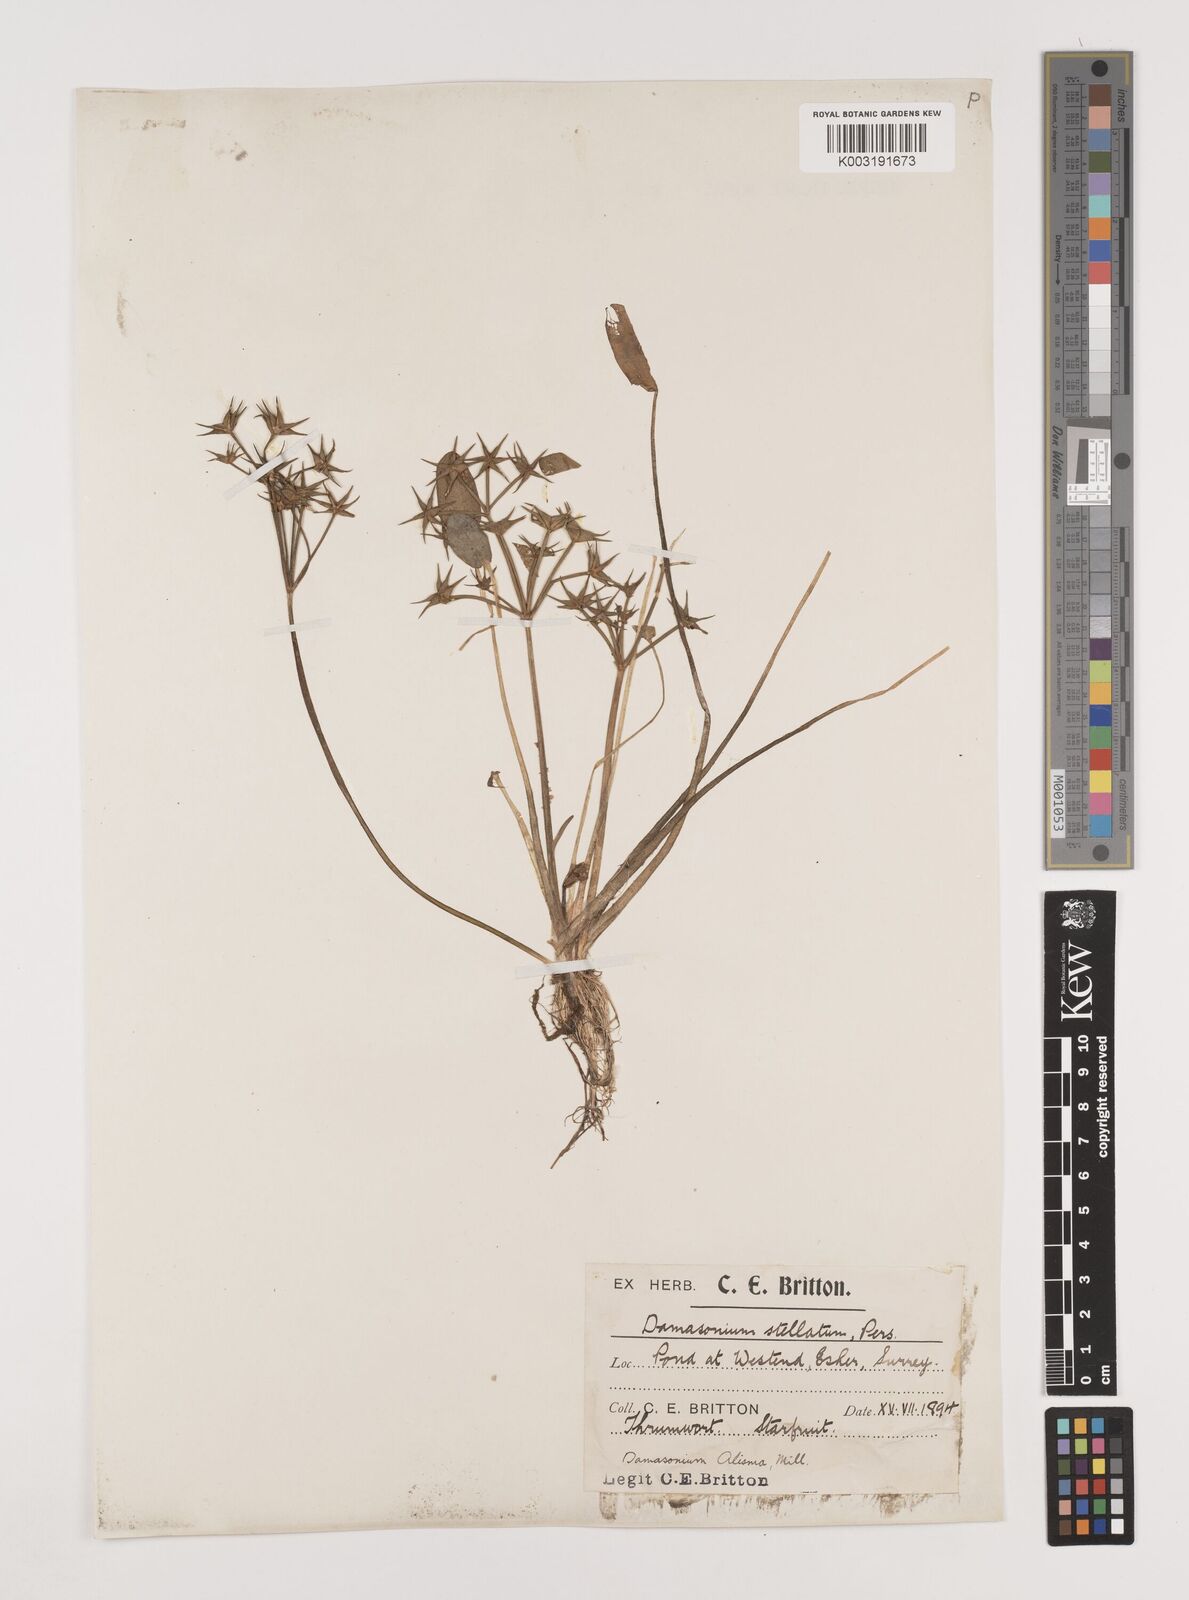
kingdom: Plantae
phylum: Tracheophyta
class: Liliopsida
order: Alismatales
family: Alismataceae
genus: Damasonium
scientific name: Damasonium alisma
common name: Starfruit
